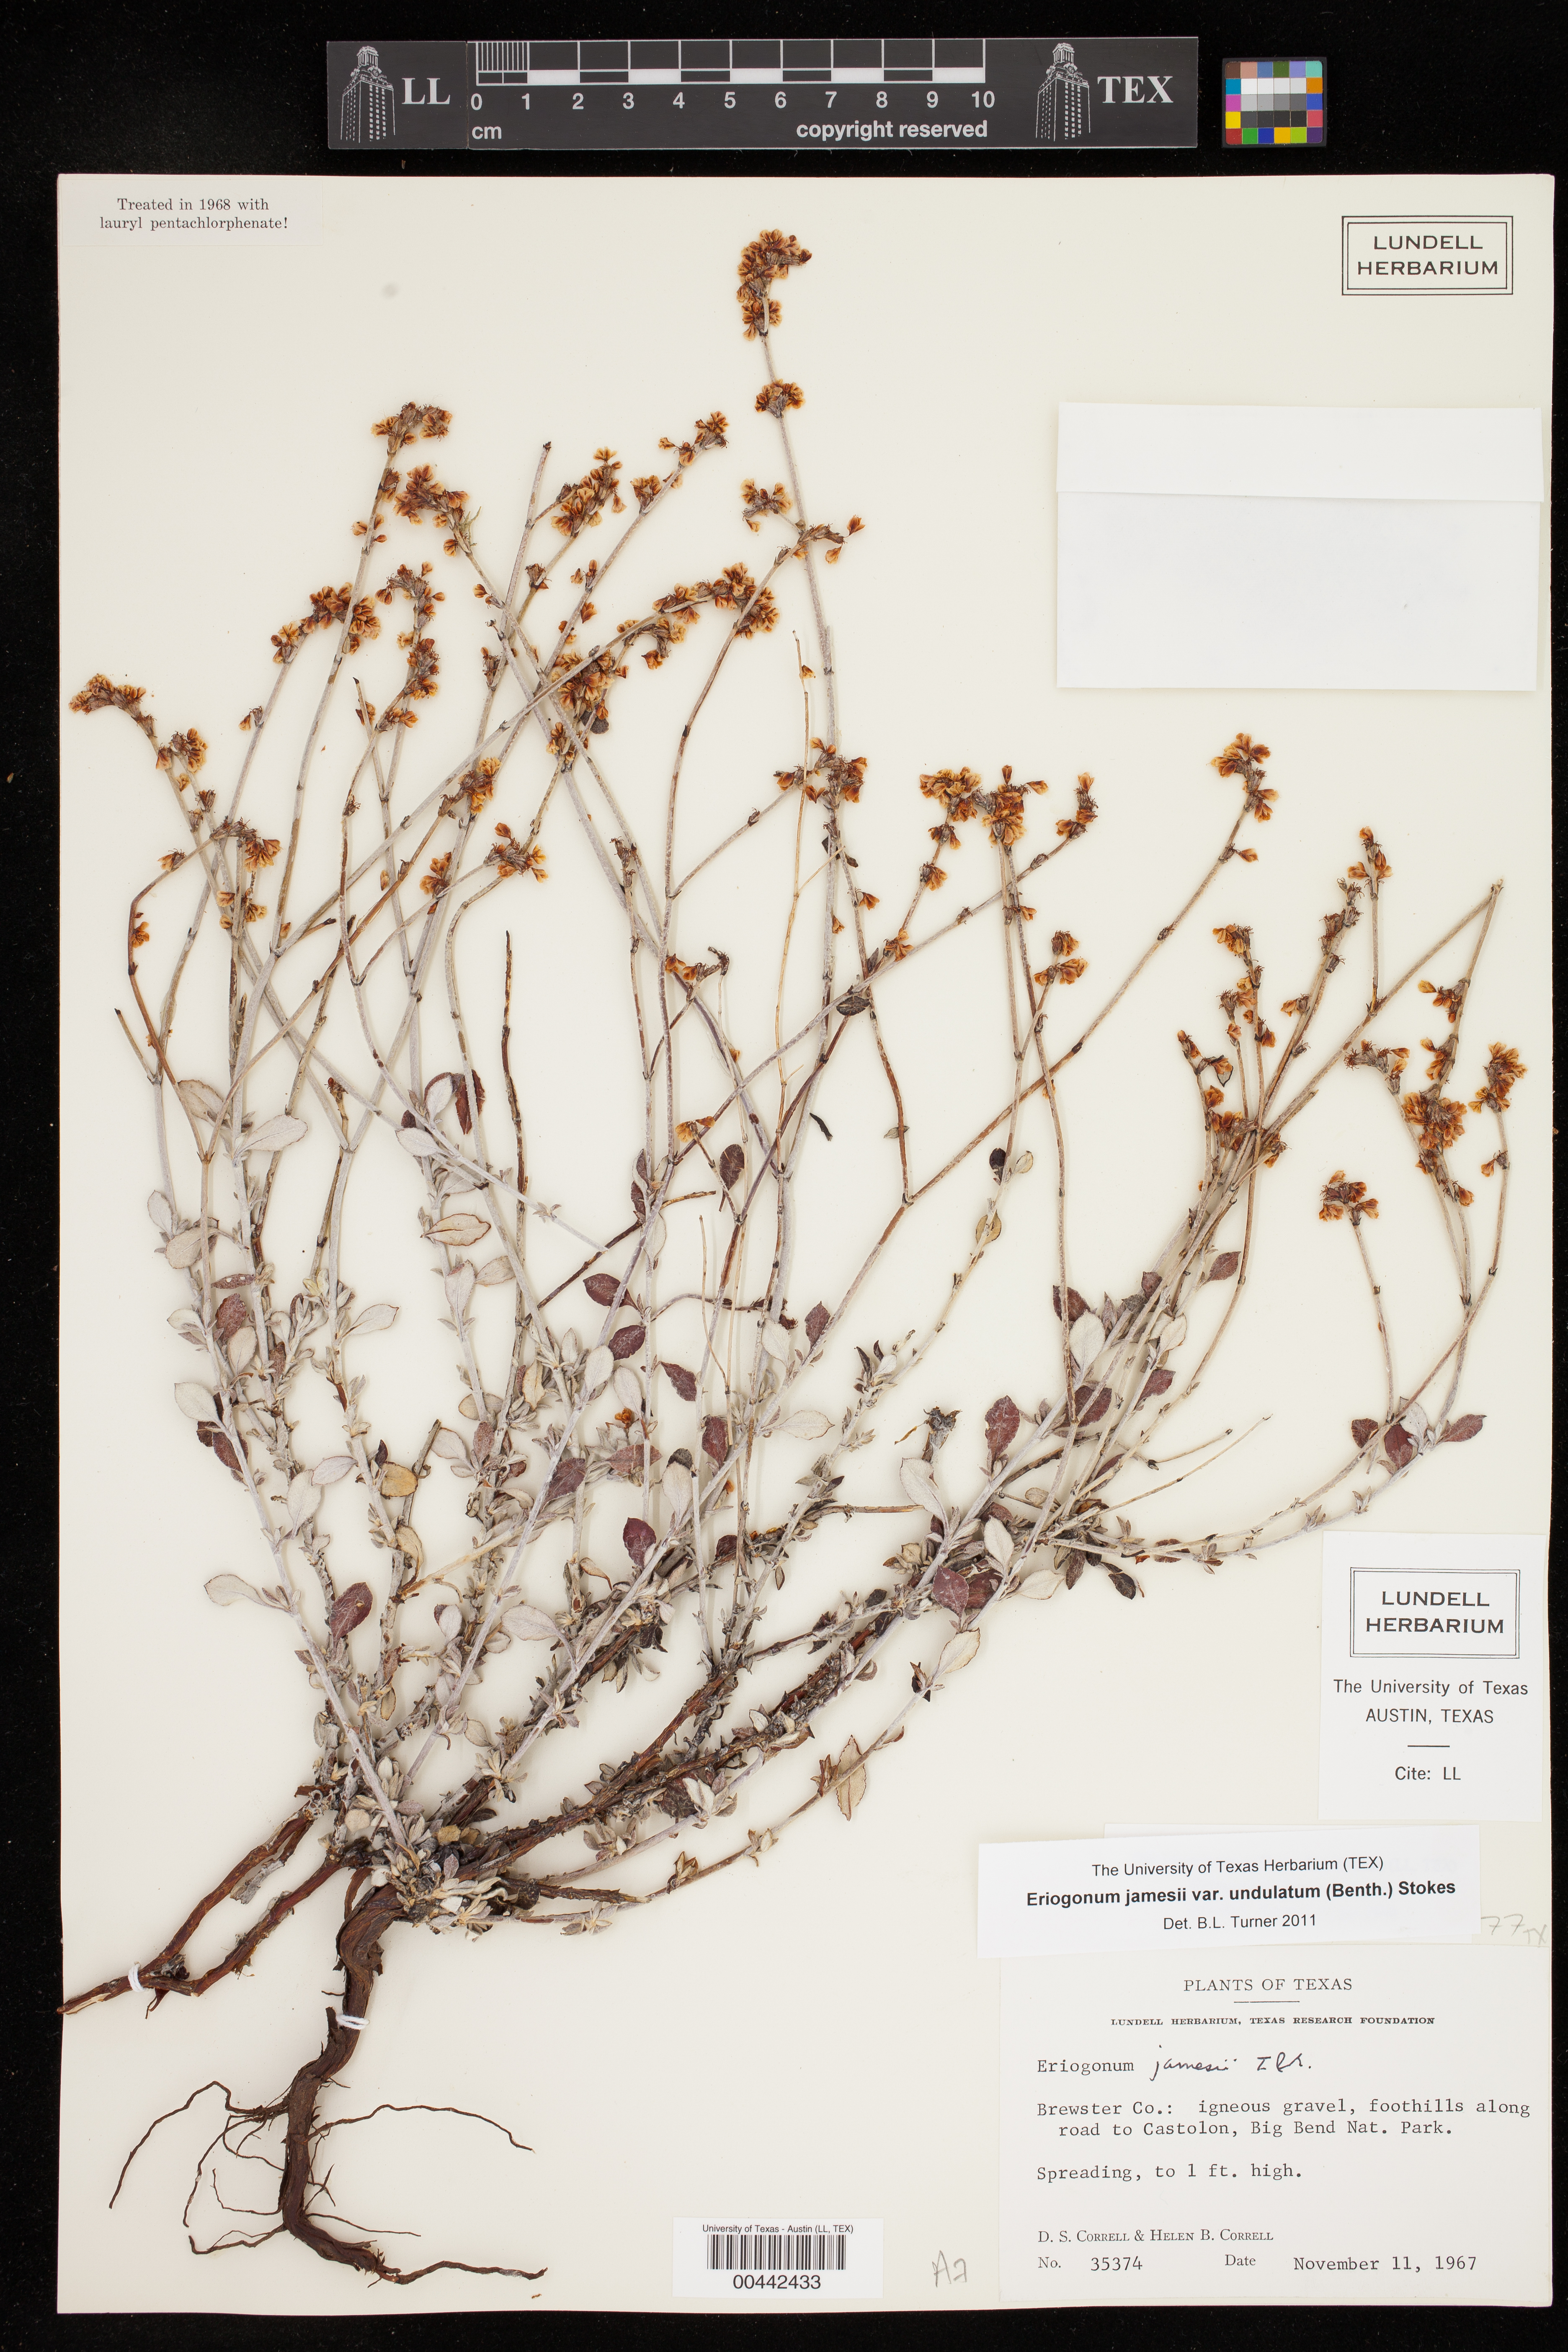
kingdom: Plantae
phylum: Tracheophyta
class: Magnoliopsida
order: Caryophyllales
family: Polygonaceae
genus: Eriogonum
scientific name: Eriogonum wrightii
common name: Bastard-sage
